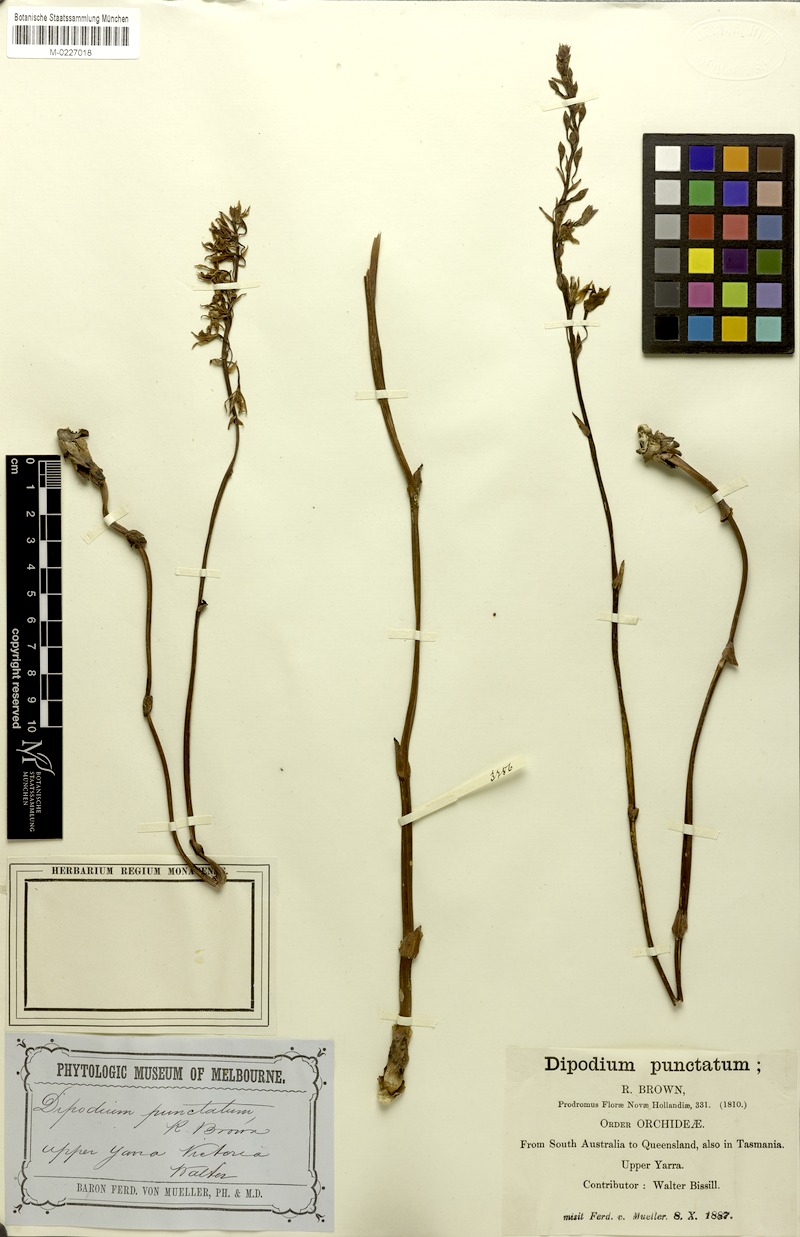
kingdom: Plantae
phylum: Tracheophyta
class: Liliopsida
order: Asparagales
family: Orchidaceae
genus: Dipodium
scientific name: Dipodium squamatum
